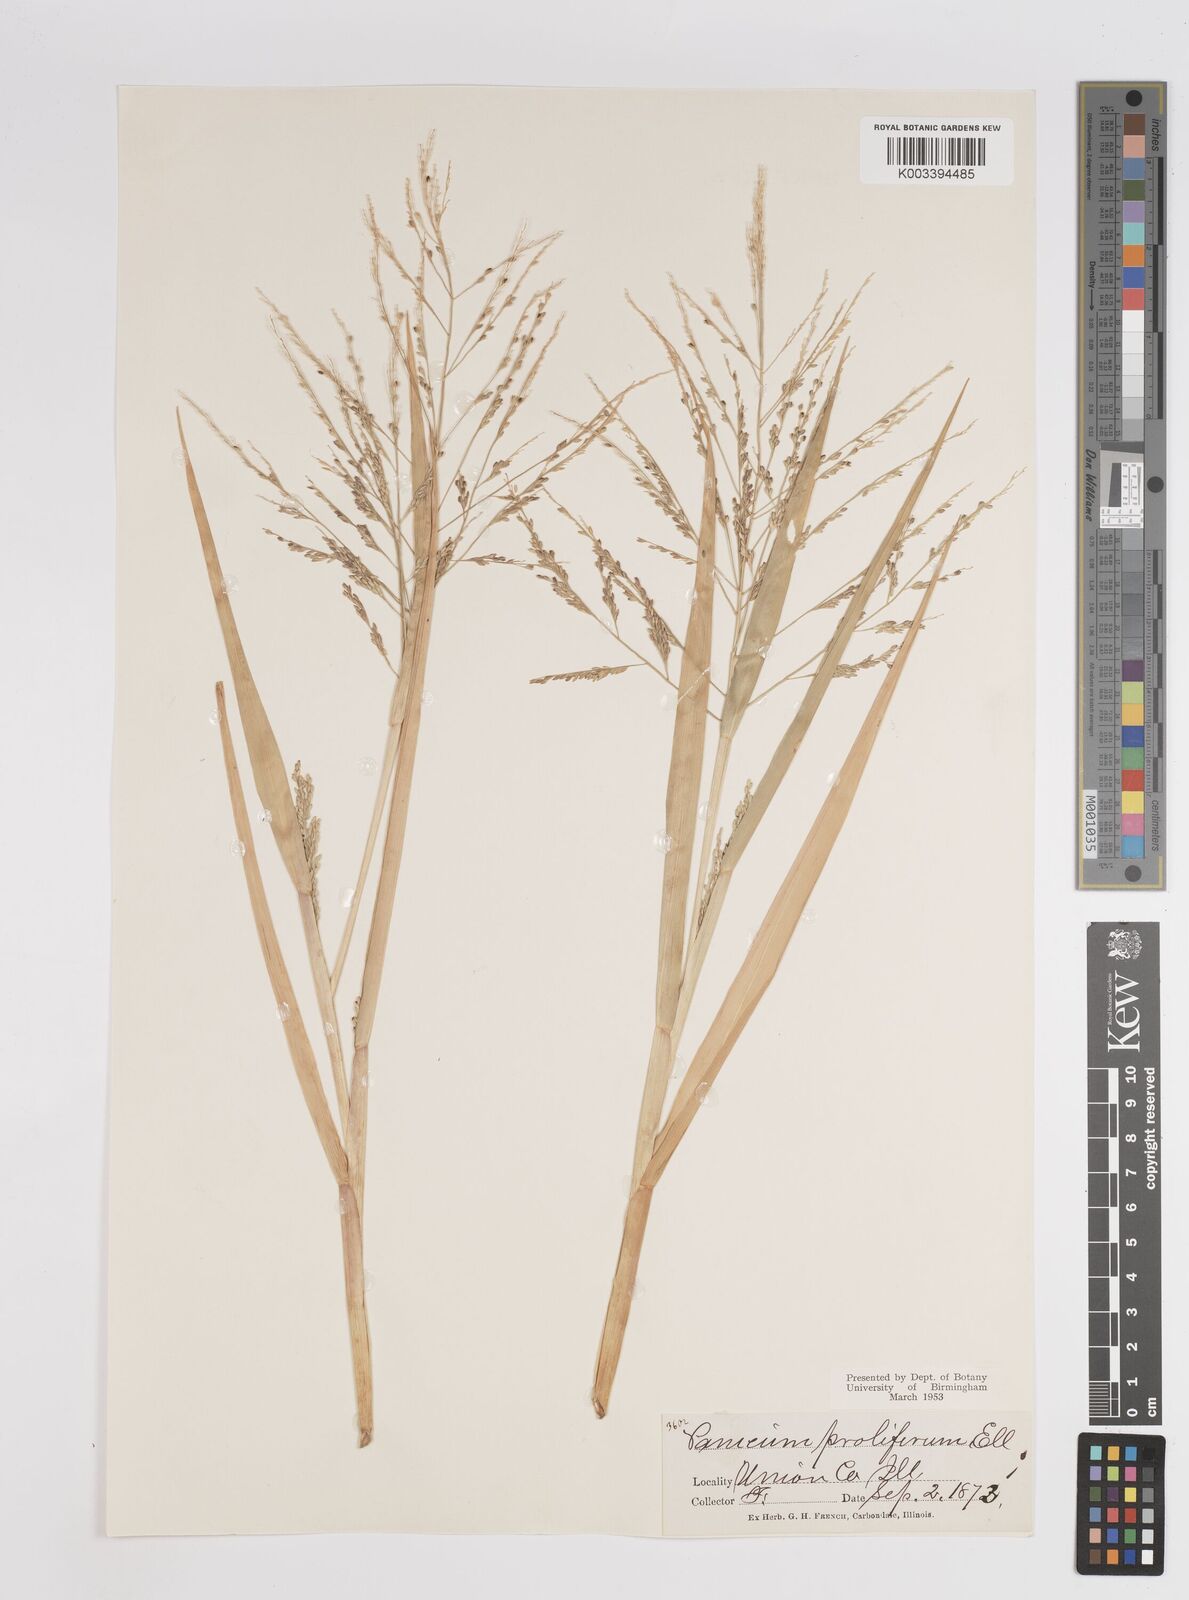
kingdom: Plantae
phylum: Tracheophyta
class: Liliopsida
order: Poales
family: Poaceae
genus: Panicum
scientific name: Panicum dichotomiflorum
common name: Autumn millet
